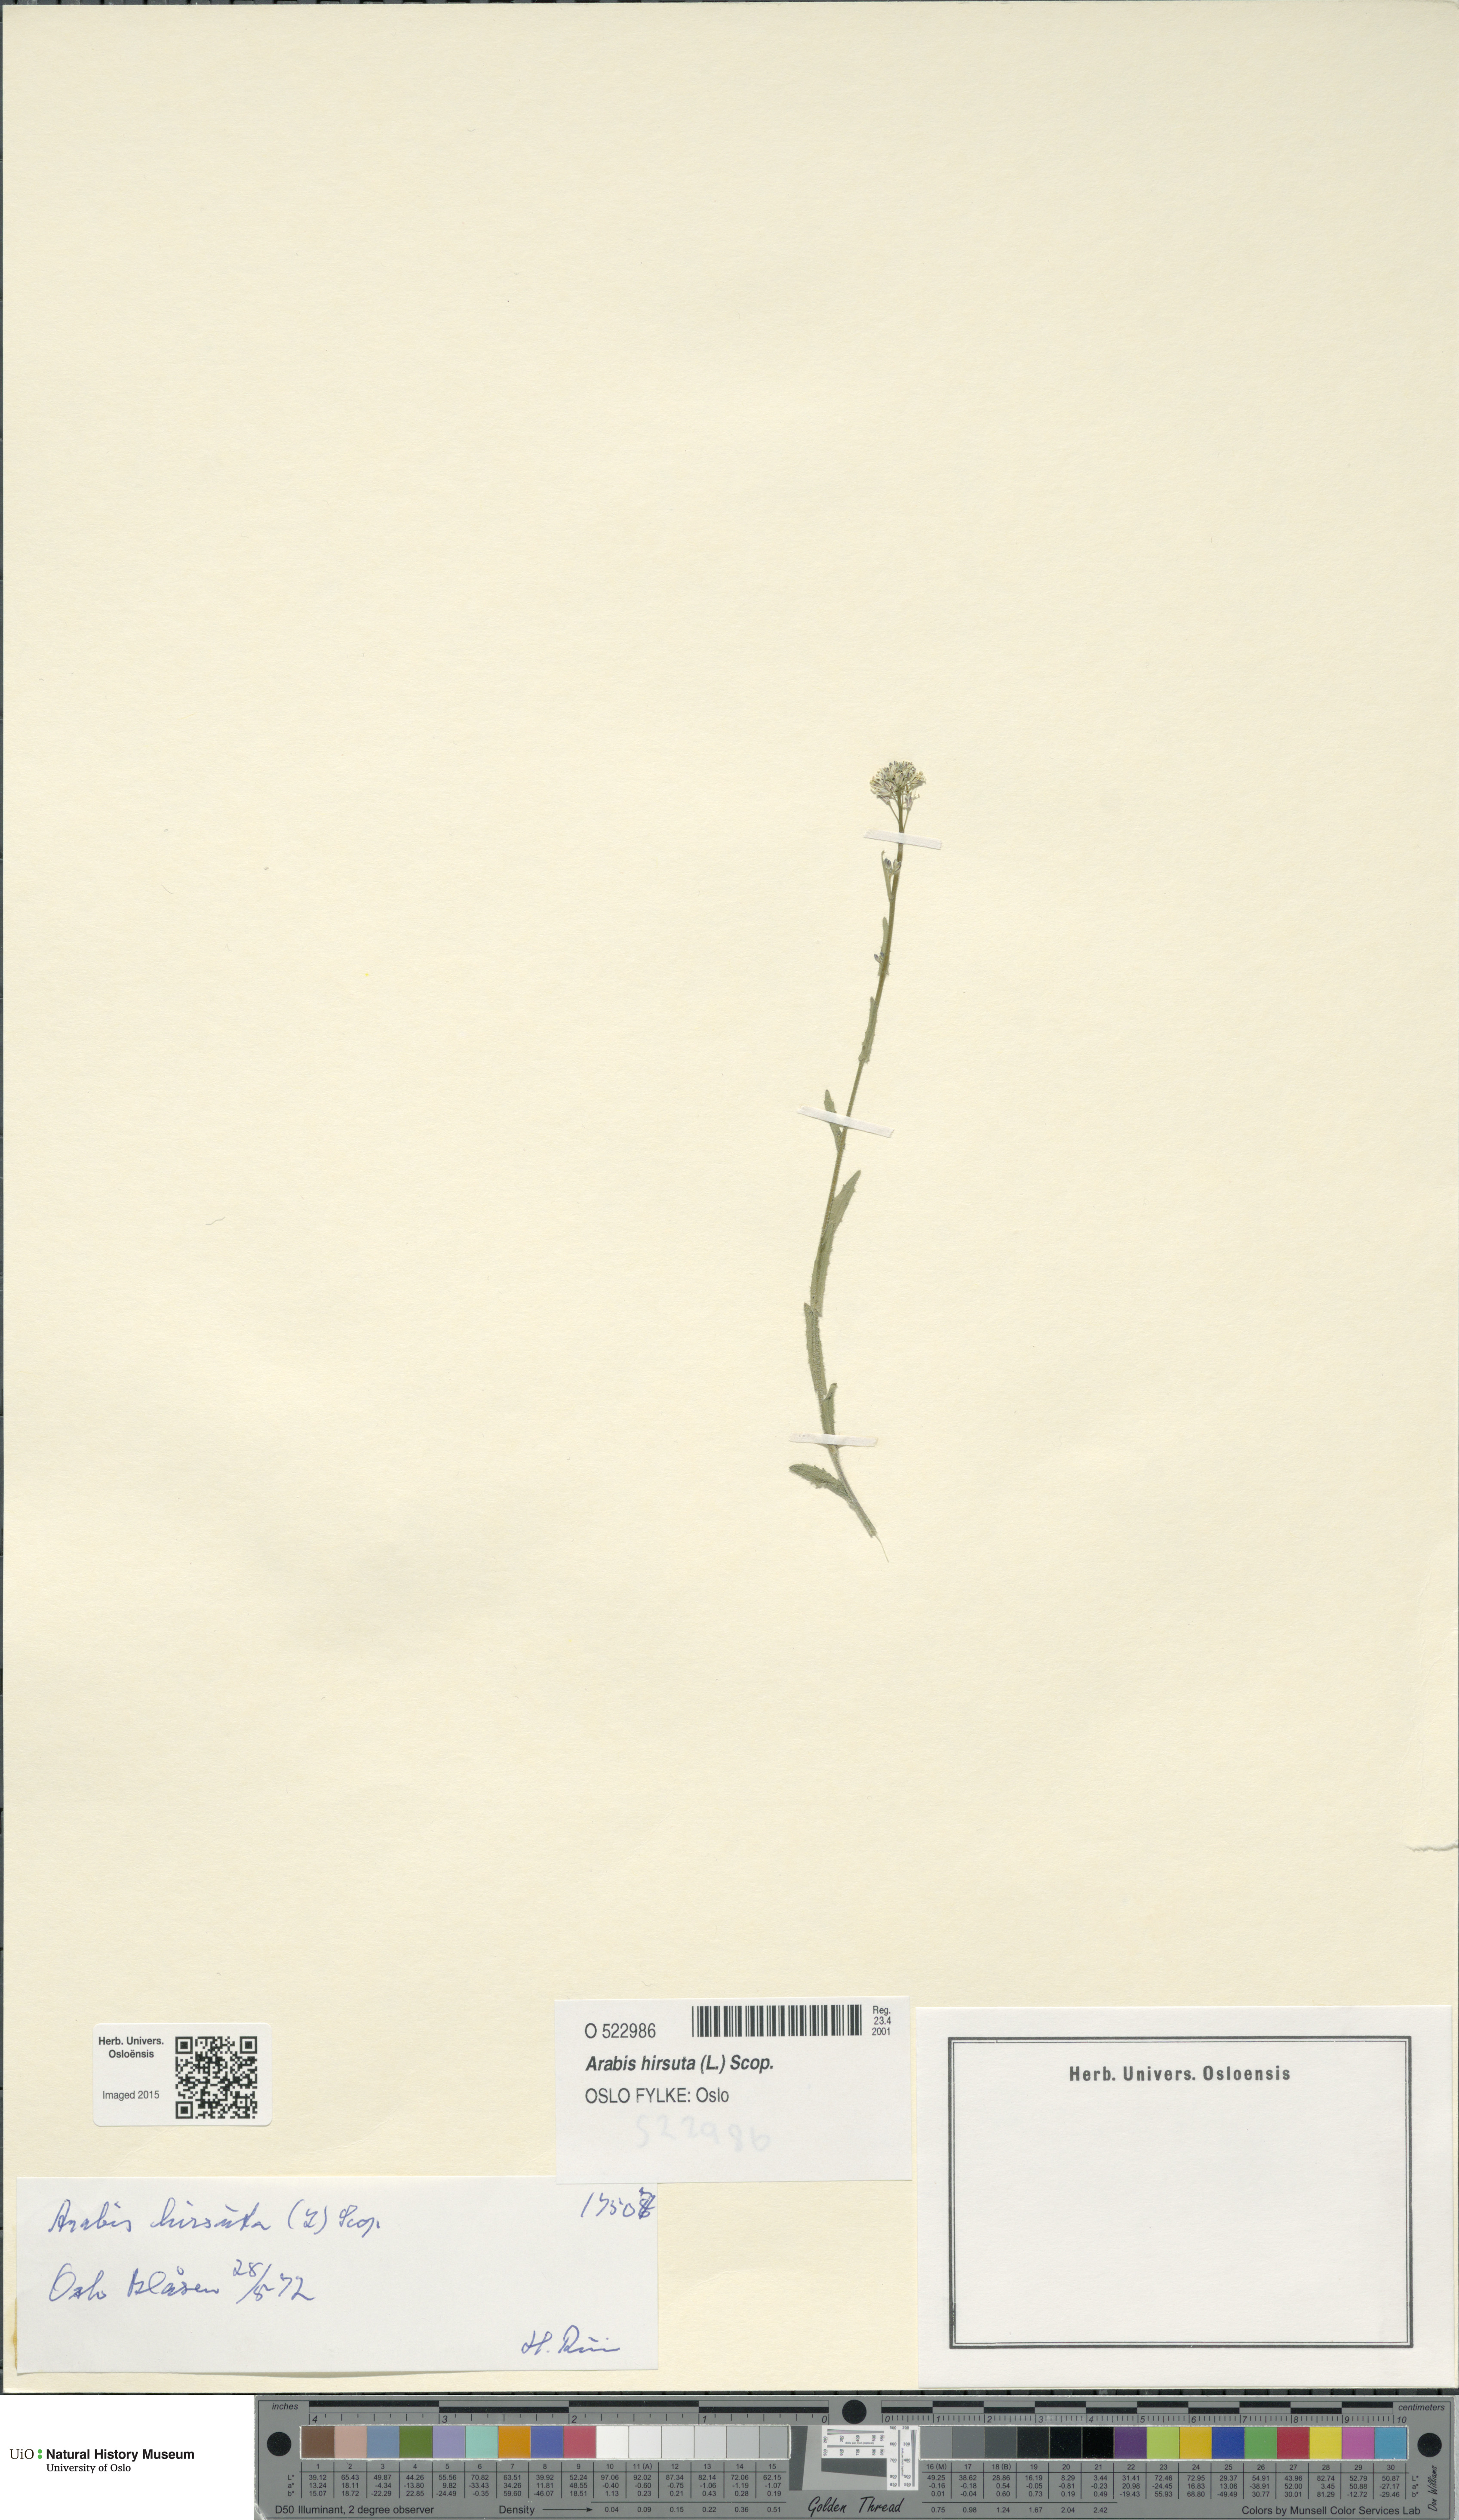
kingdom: Plantae
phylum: Tracheophyta
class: Magnoliopsida
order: Brassicales
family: Brassicaceae
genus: Arabis
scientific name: Arabis hirsuta
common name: Hairy rock-cress
